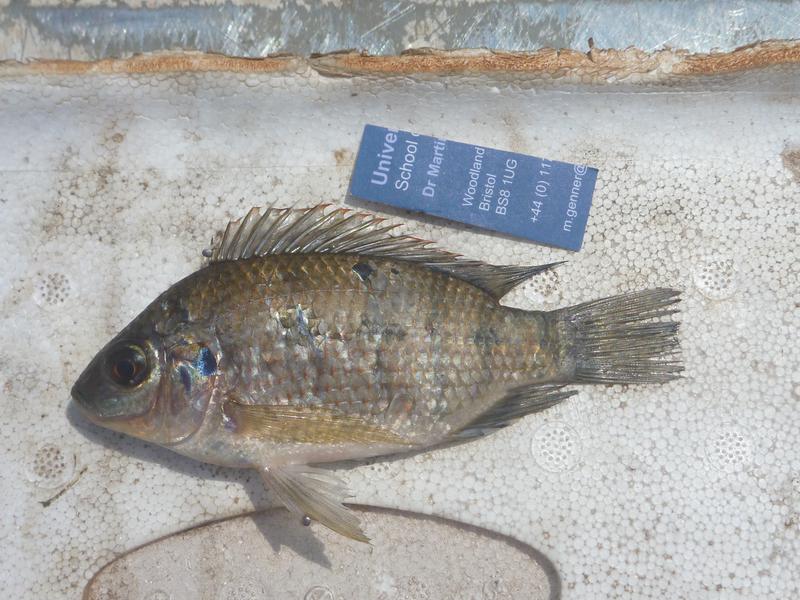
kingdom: Animalia
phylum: Chordata
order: Perciformes
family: Cichlidae
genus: Oreochromis
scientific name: Oreochromis upembae
